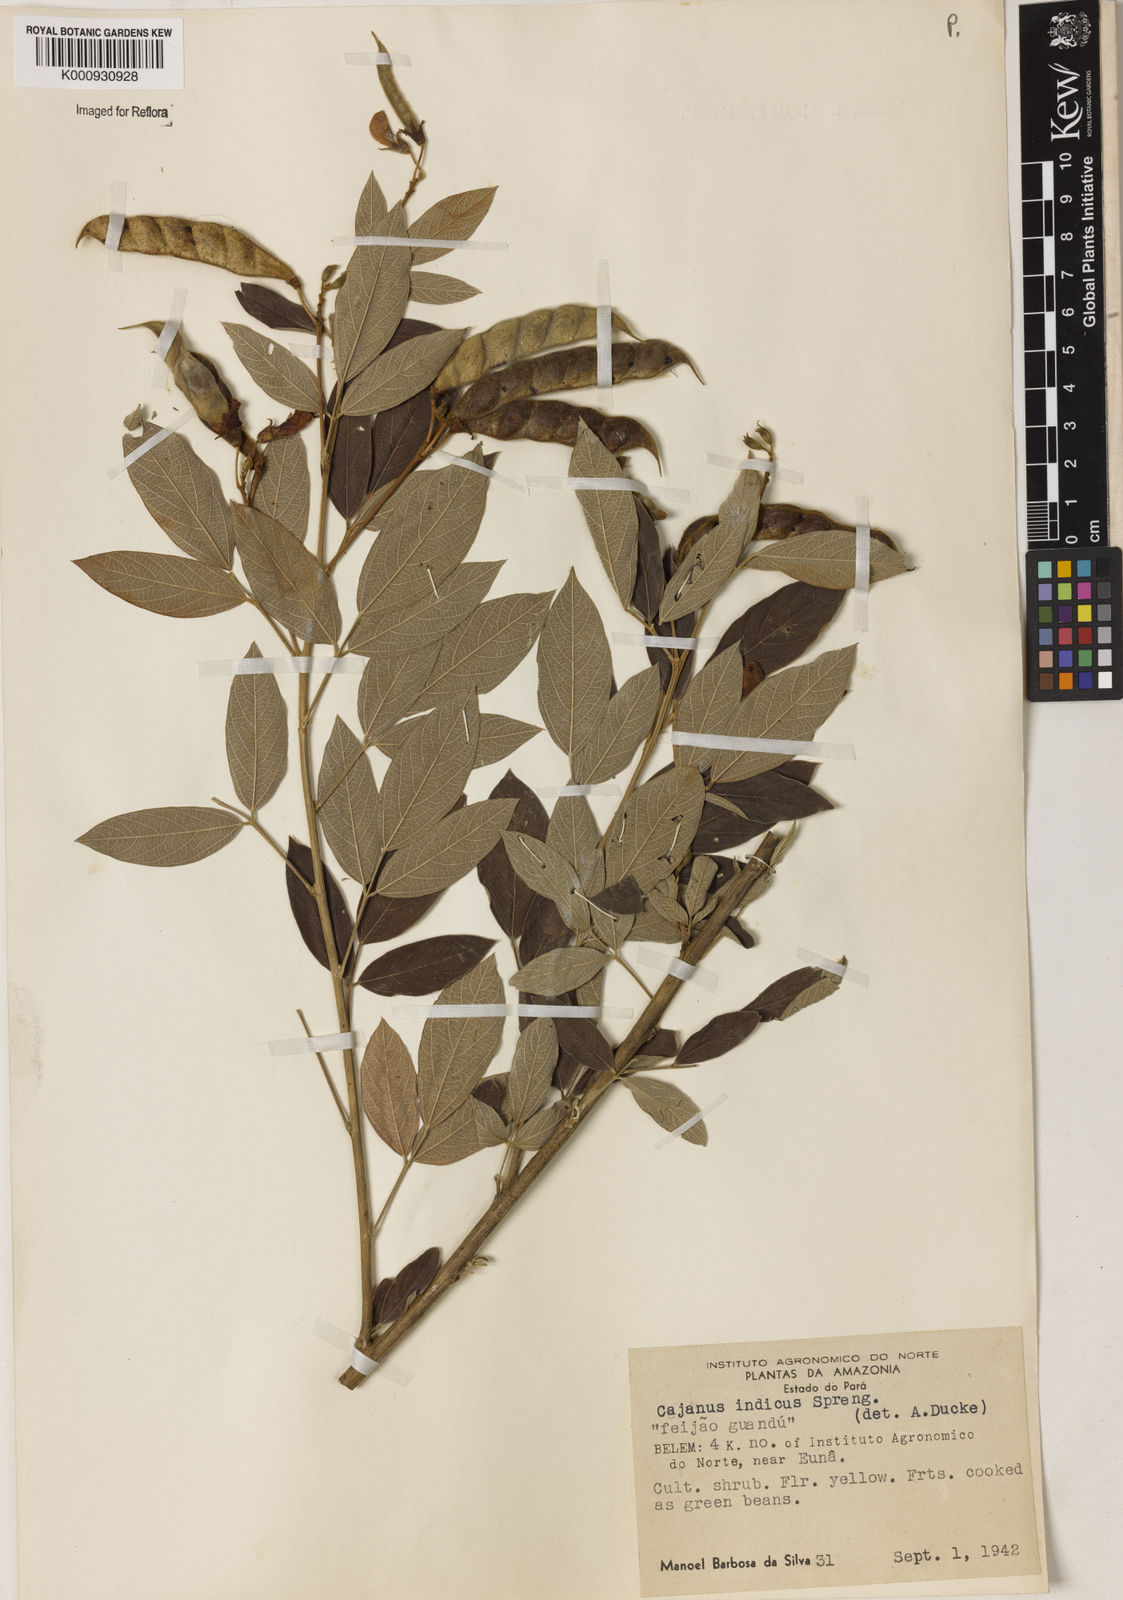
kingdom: Plantae
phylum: Tracheophyta
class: Magnoliopsida
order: Fabales
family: Fabaceae
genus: Cajanus
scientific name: Cajanus cajan
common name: Pigeonpea
